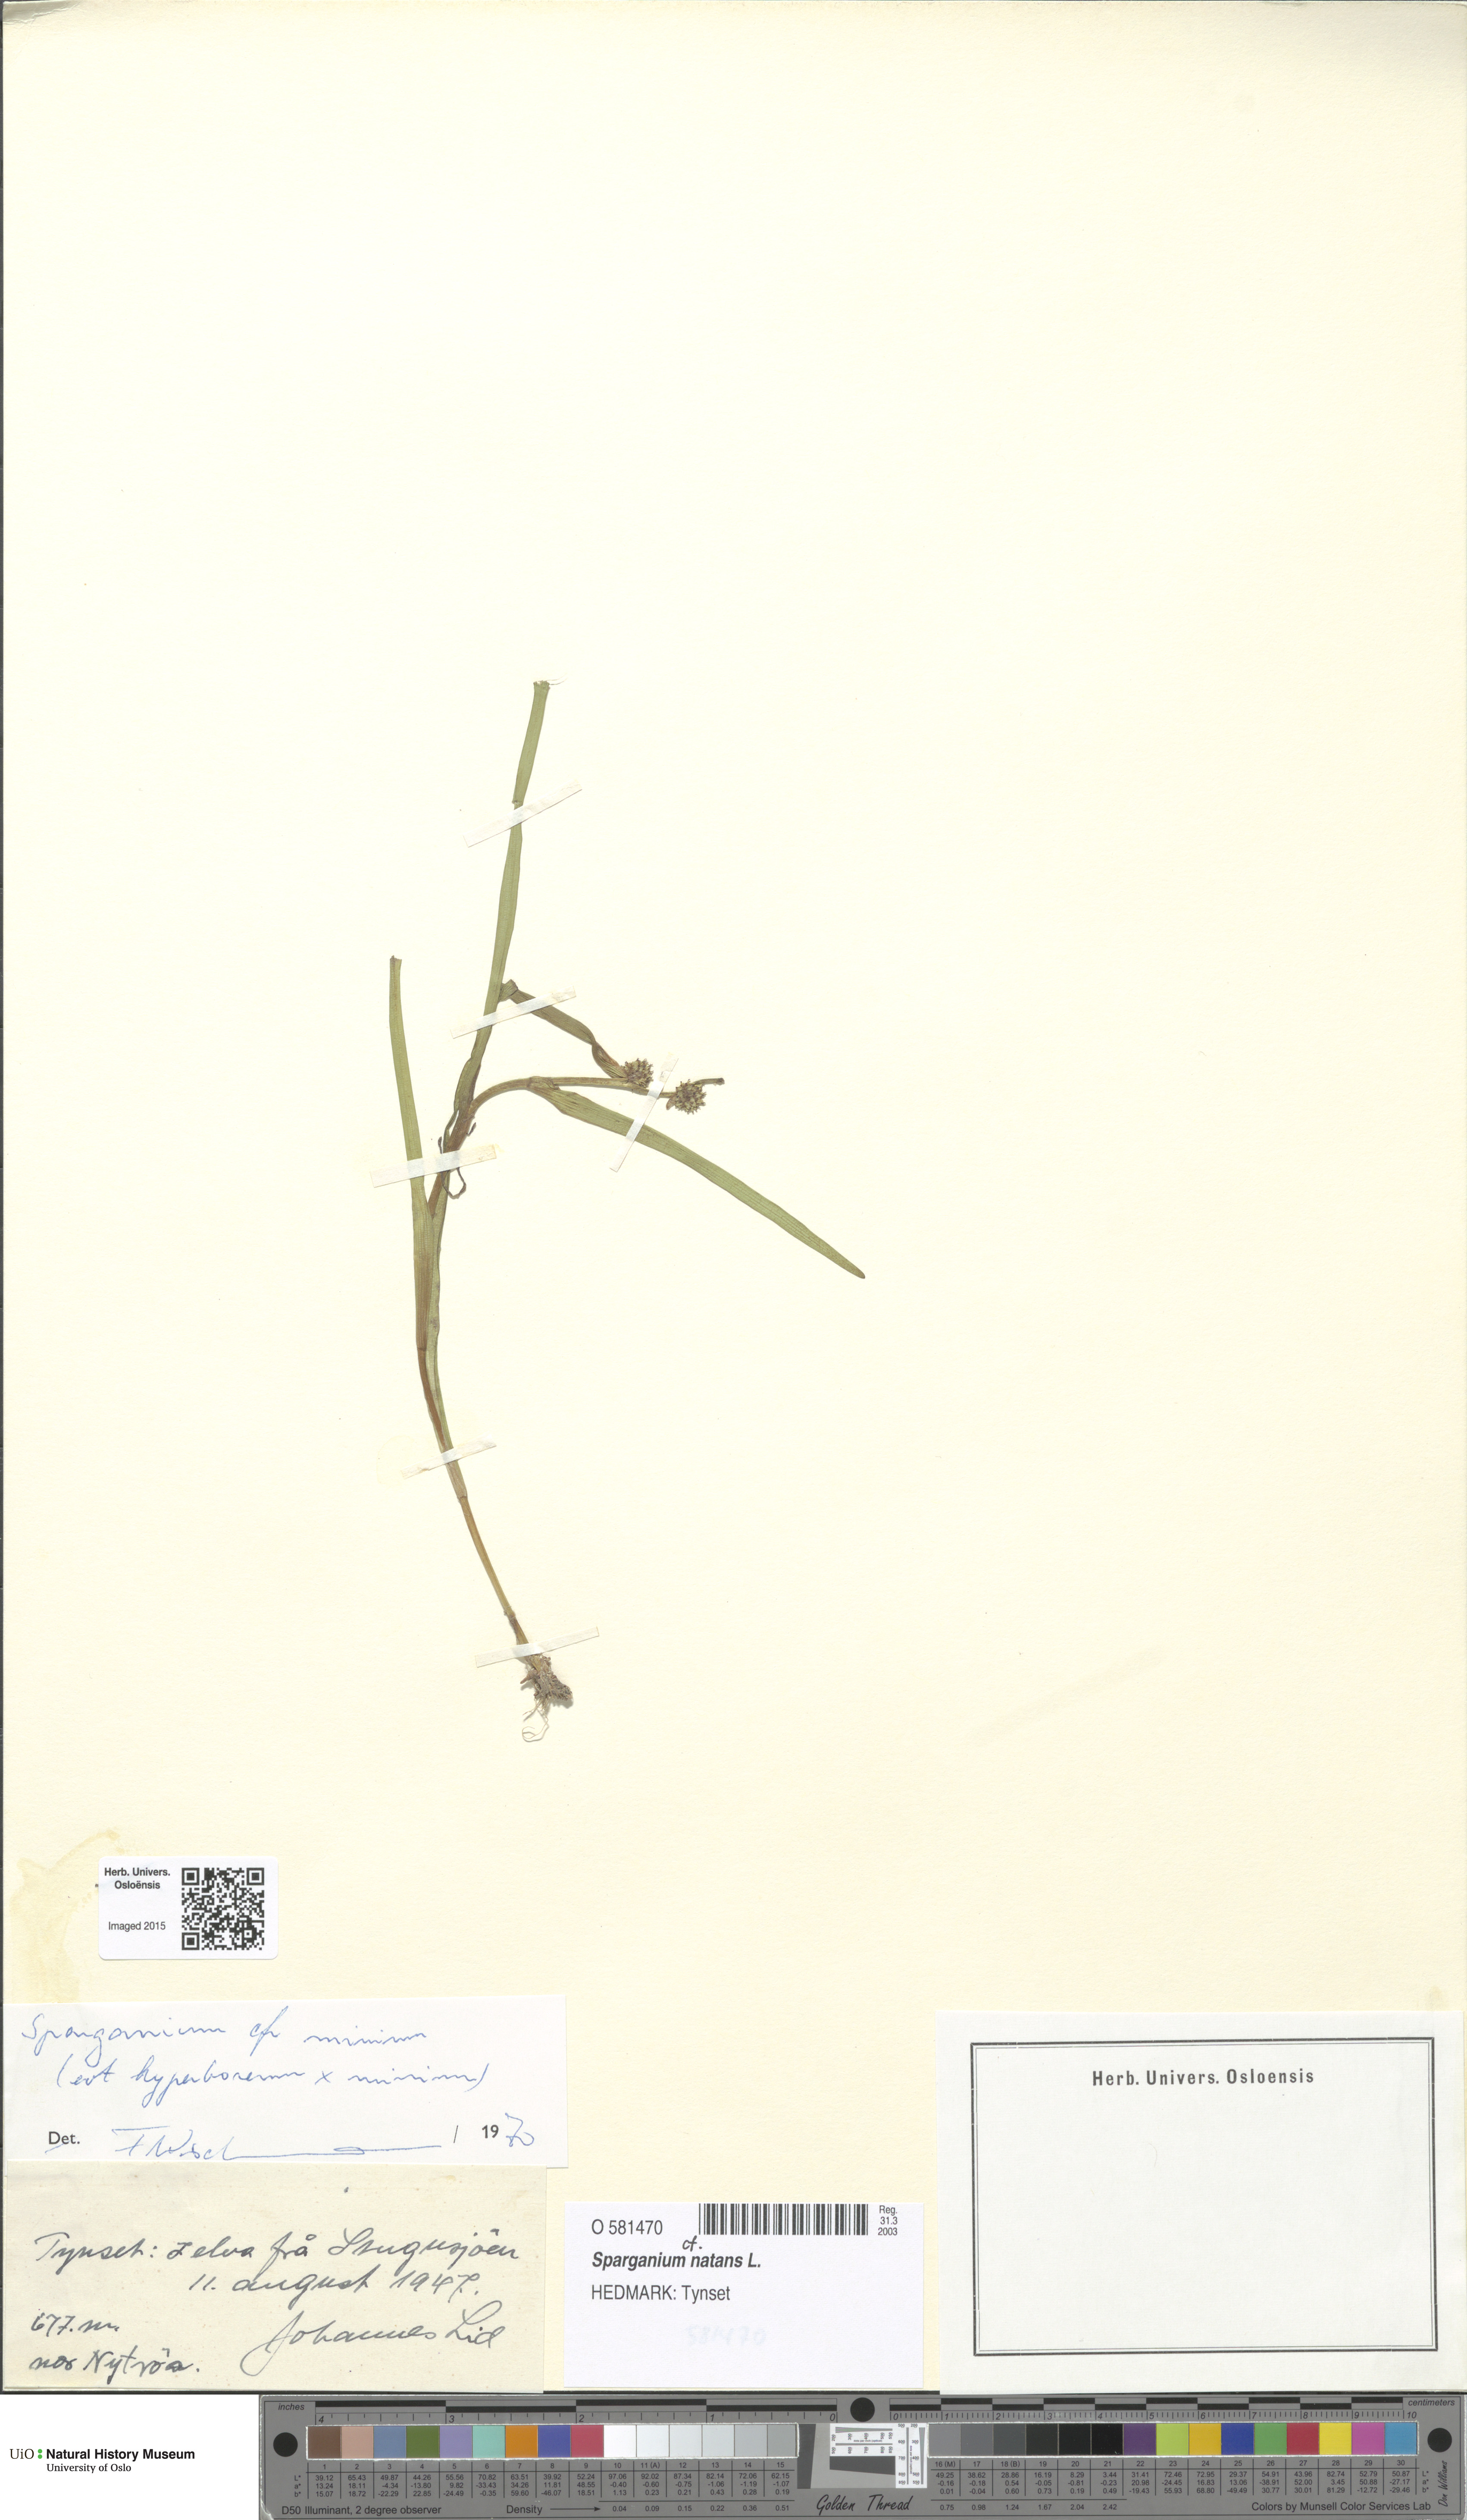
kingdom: Plantae
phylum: Tracheophyta
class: Liliopsida
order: Poales
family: Typhaceae
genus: Sparganium
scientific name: Sparganium natans
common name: Least bur-reed
